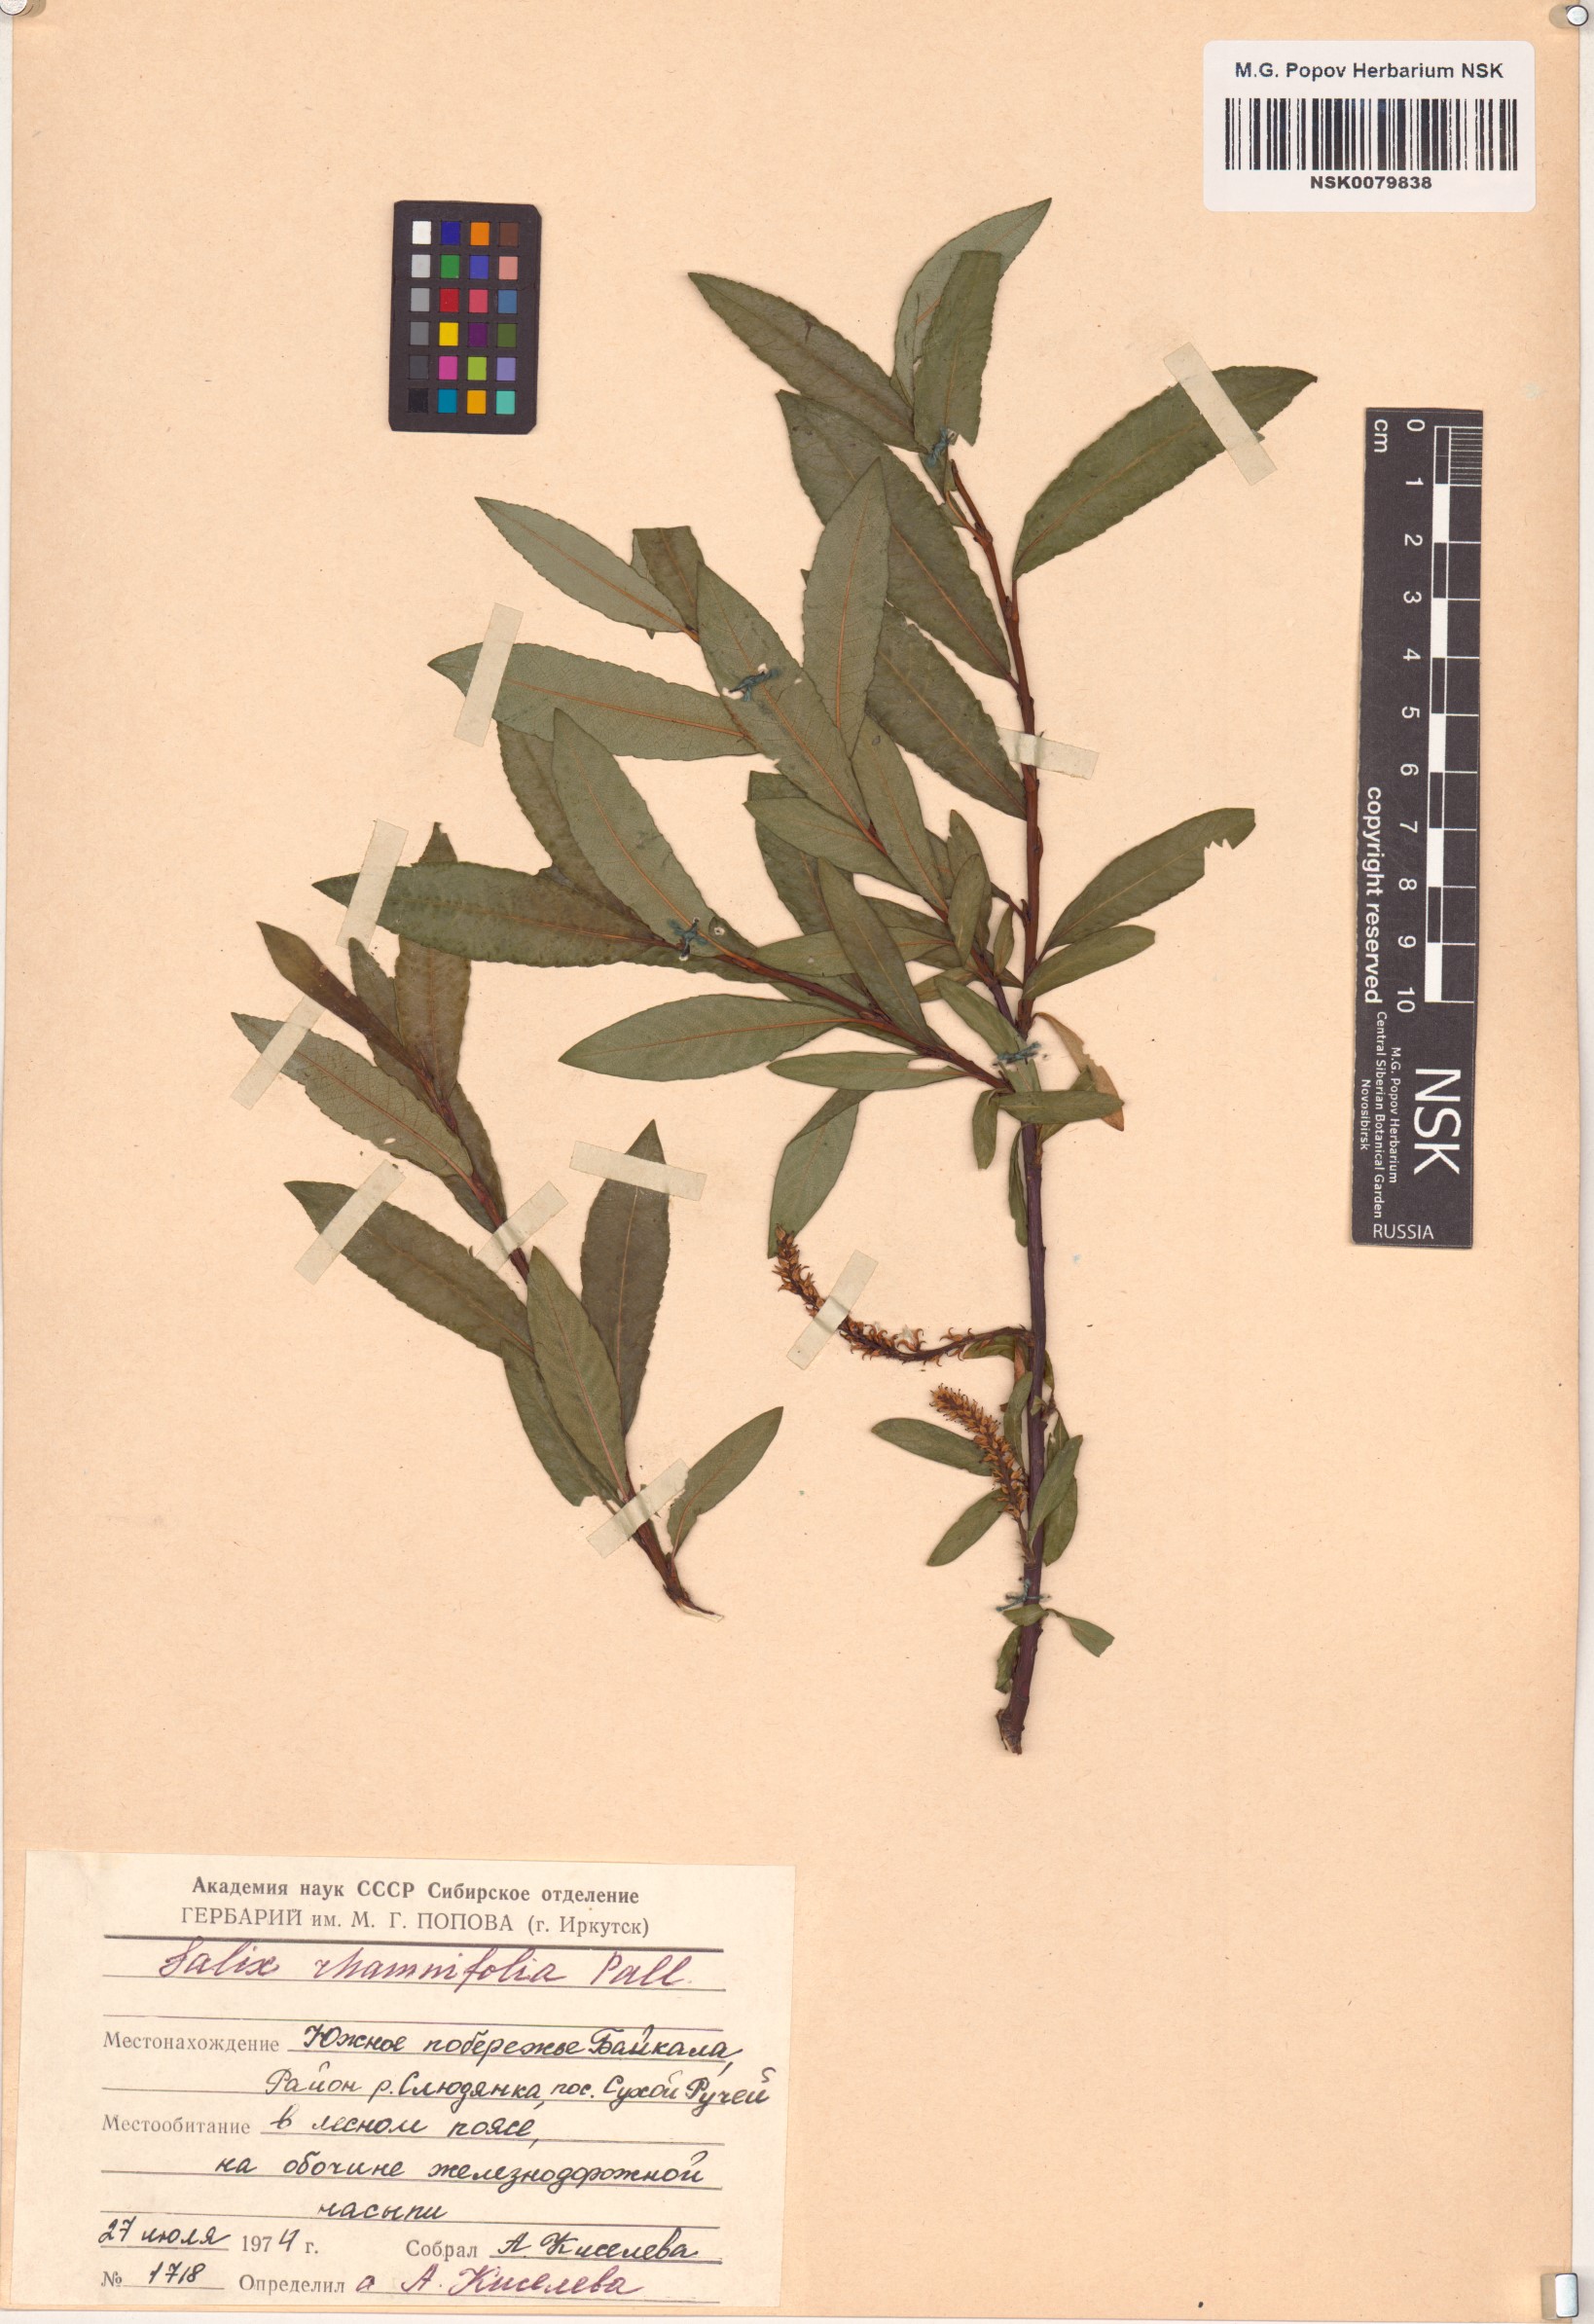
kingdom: Plantae
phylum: Tracheophyta
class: Magnoliopsida
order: Malpighiales
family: Salicaceae
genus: Salix
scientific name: Salix rhamnifolia
